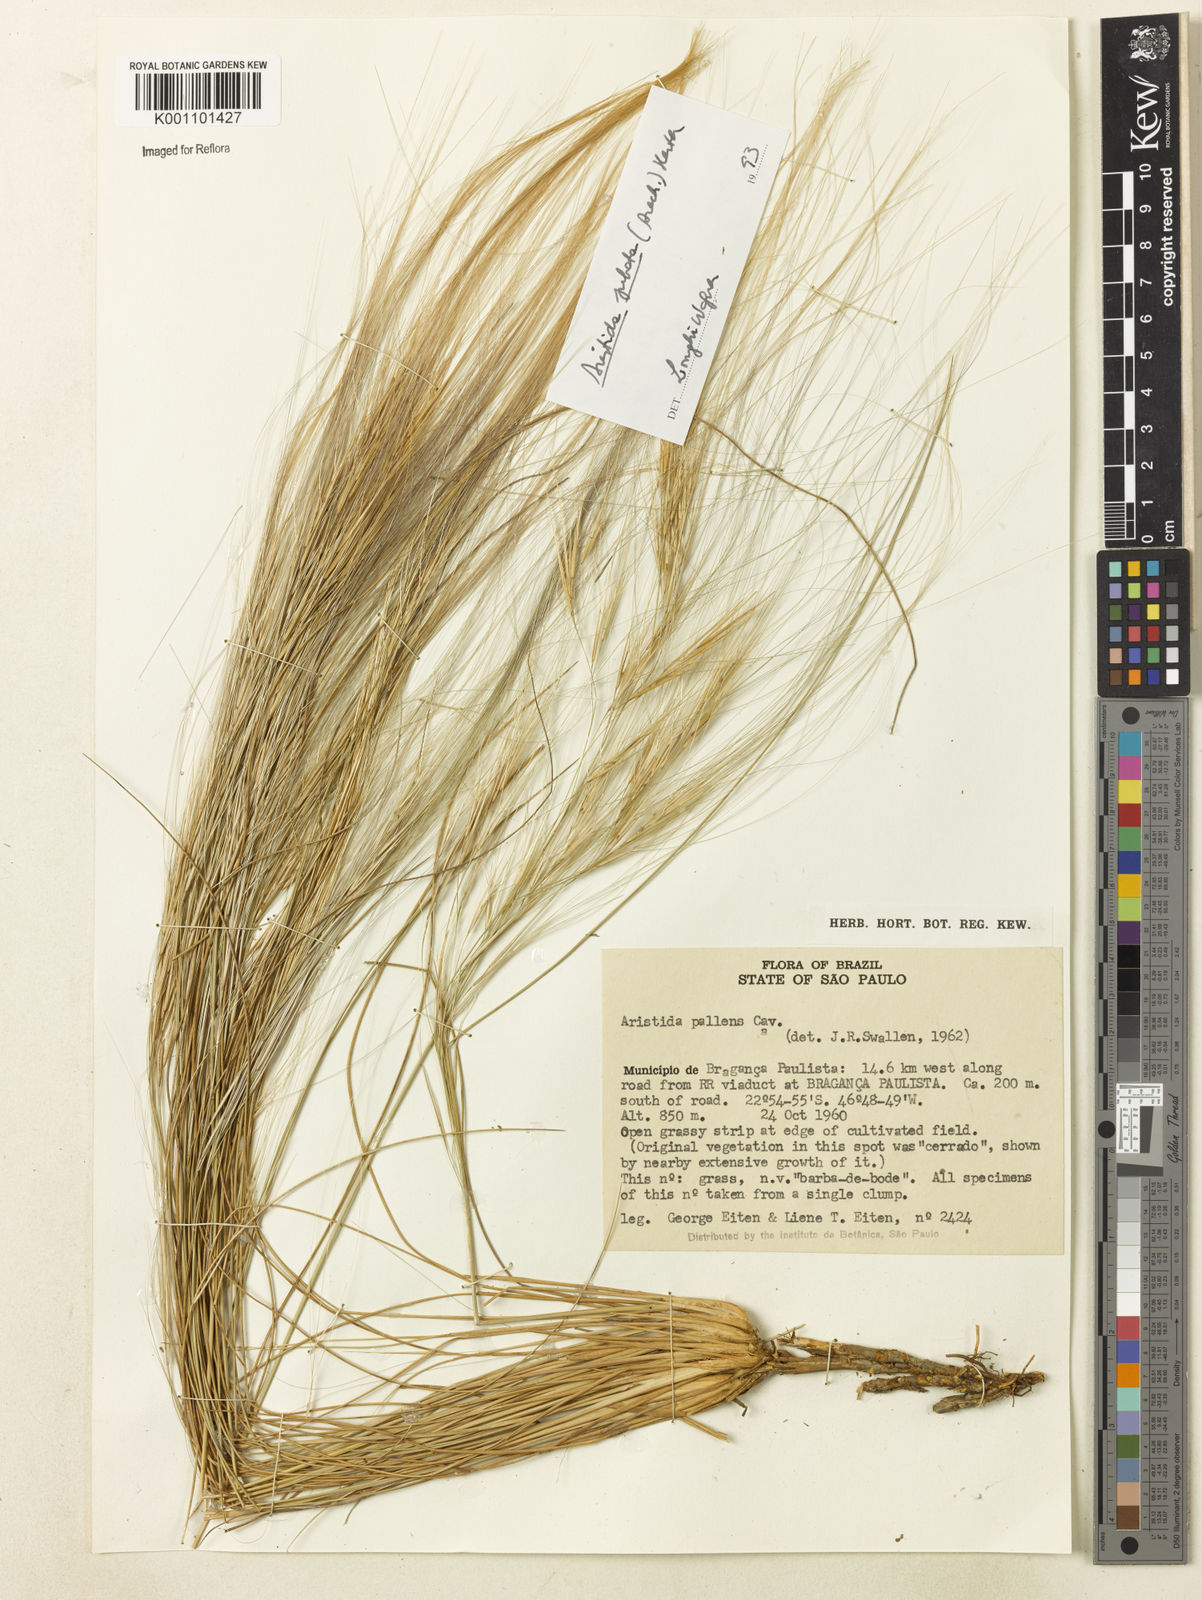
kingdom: Plantae
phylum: Tracheophyta
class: Liliopsida
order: Poales
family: Poaceae
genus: Aristida
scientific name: Aristida jubata
